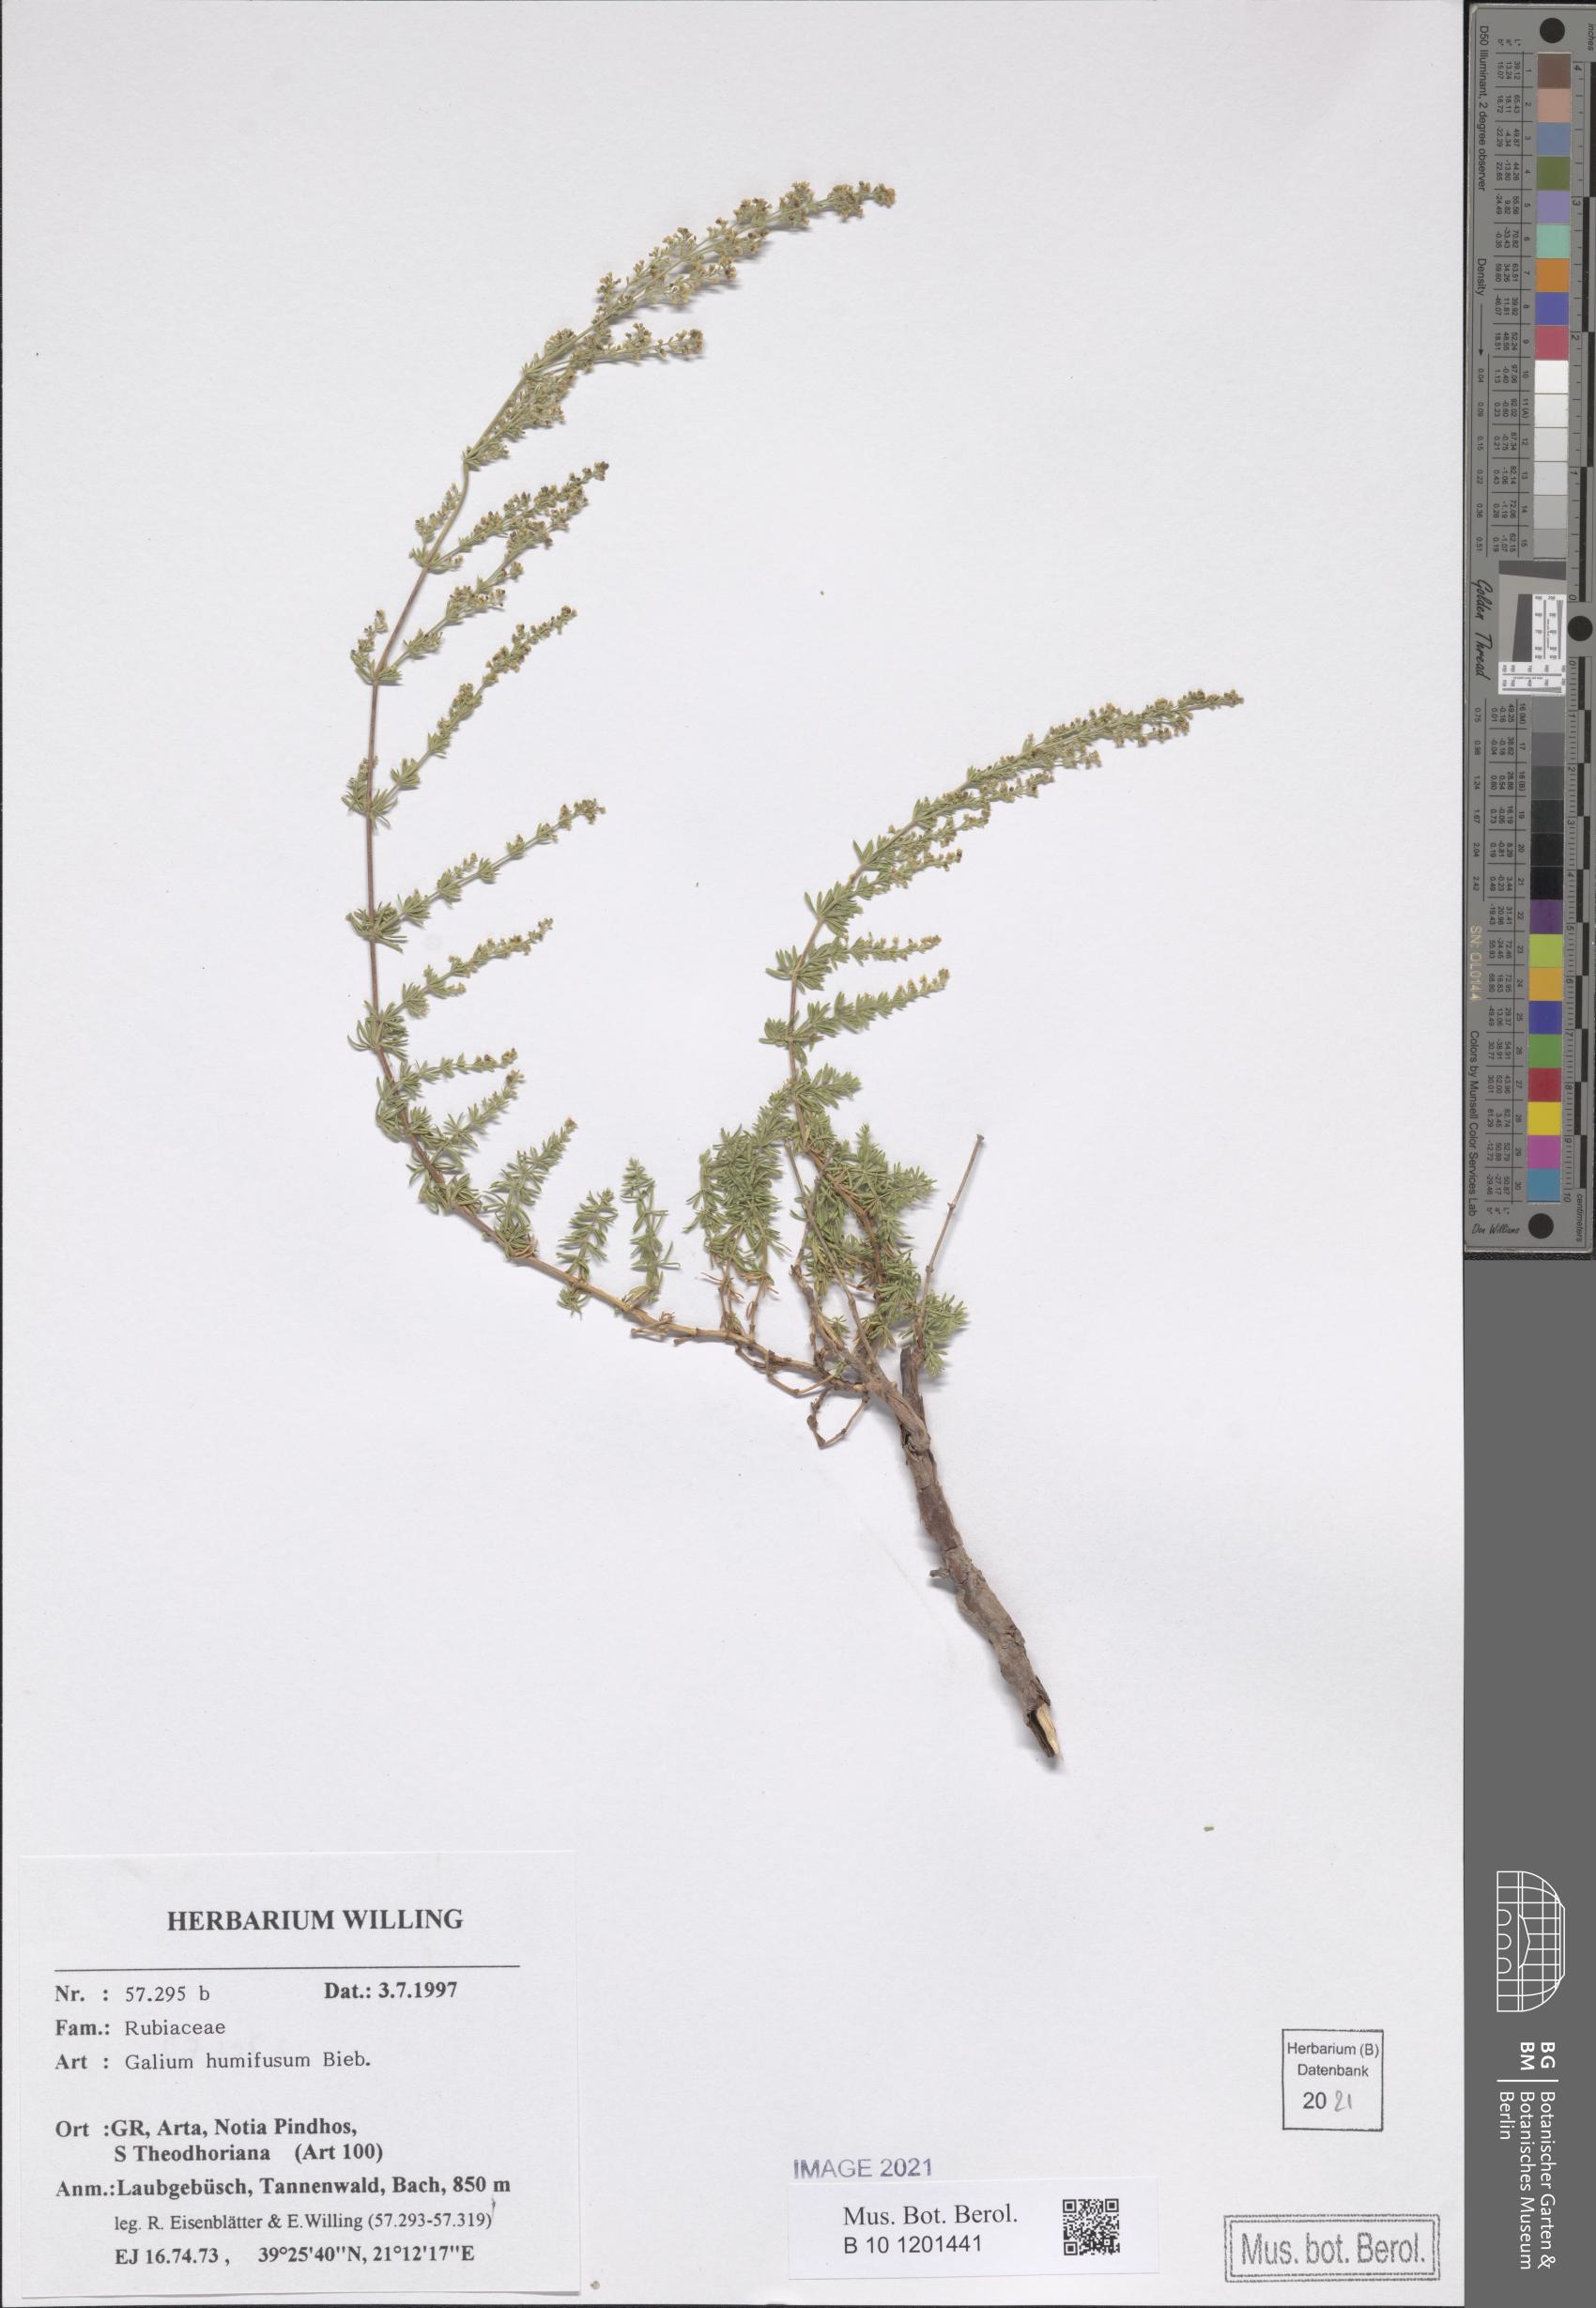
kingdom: Plantae
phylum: Tracheophyta
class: Magnoliopsida
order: Gentianales
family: Rubiaceae
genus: Galium
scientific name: Galium humifusum
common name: Spreading bedstraw
